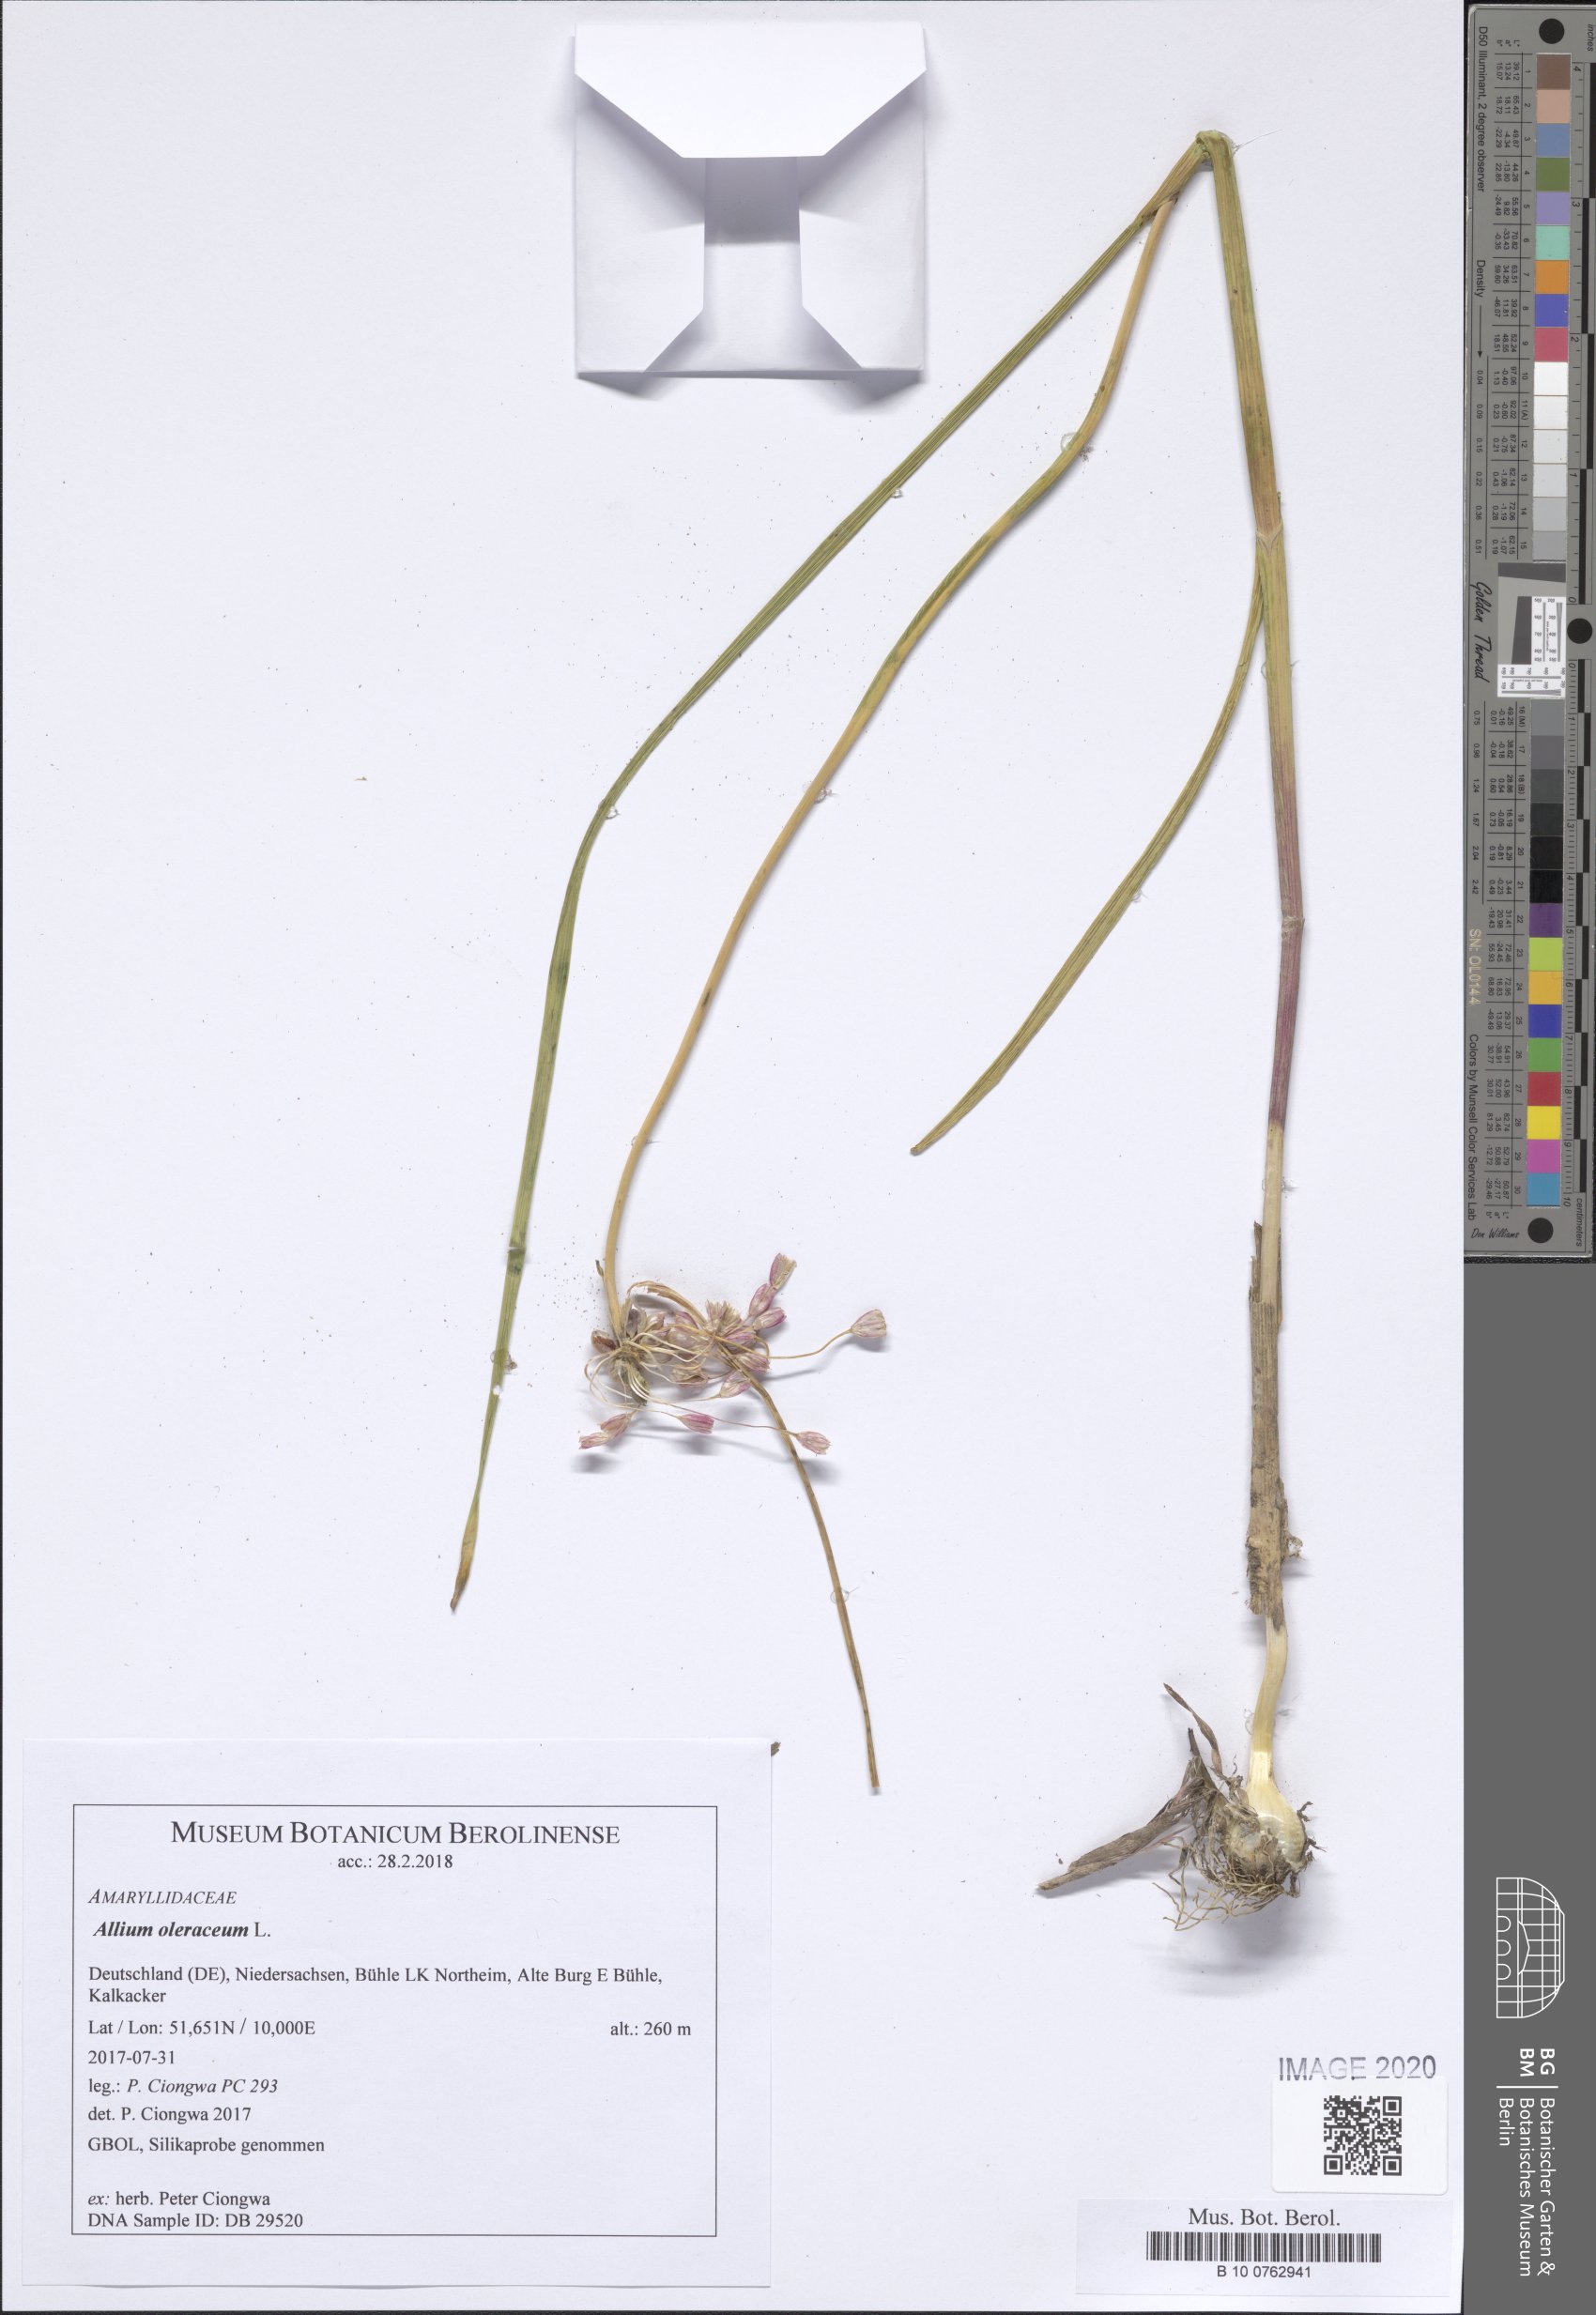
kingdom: Plantae
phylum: Tracheophyta
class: Liliopsida
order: Asparagales
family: Amaryllidaceae
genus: Allium
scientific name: Allium oleraceum
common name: Field garlic
